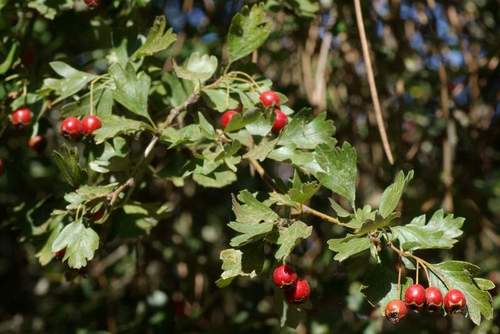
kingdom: Plantae
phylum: Tracheophyta
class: Magnoliopsida
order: Rosales
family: Rosaceae
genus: Crataegus
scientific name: Crataegus monogyna
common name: Hawthorn
